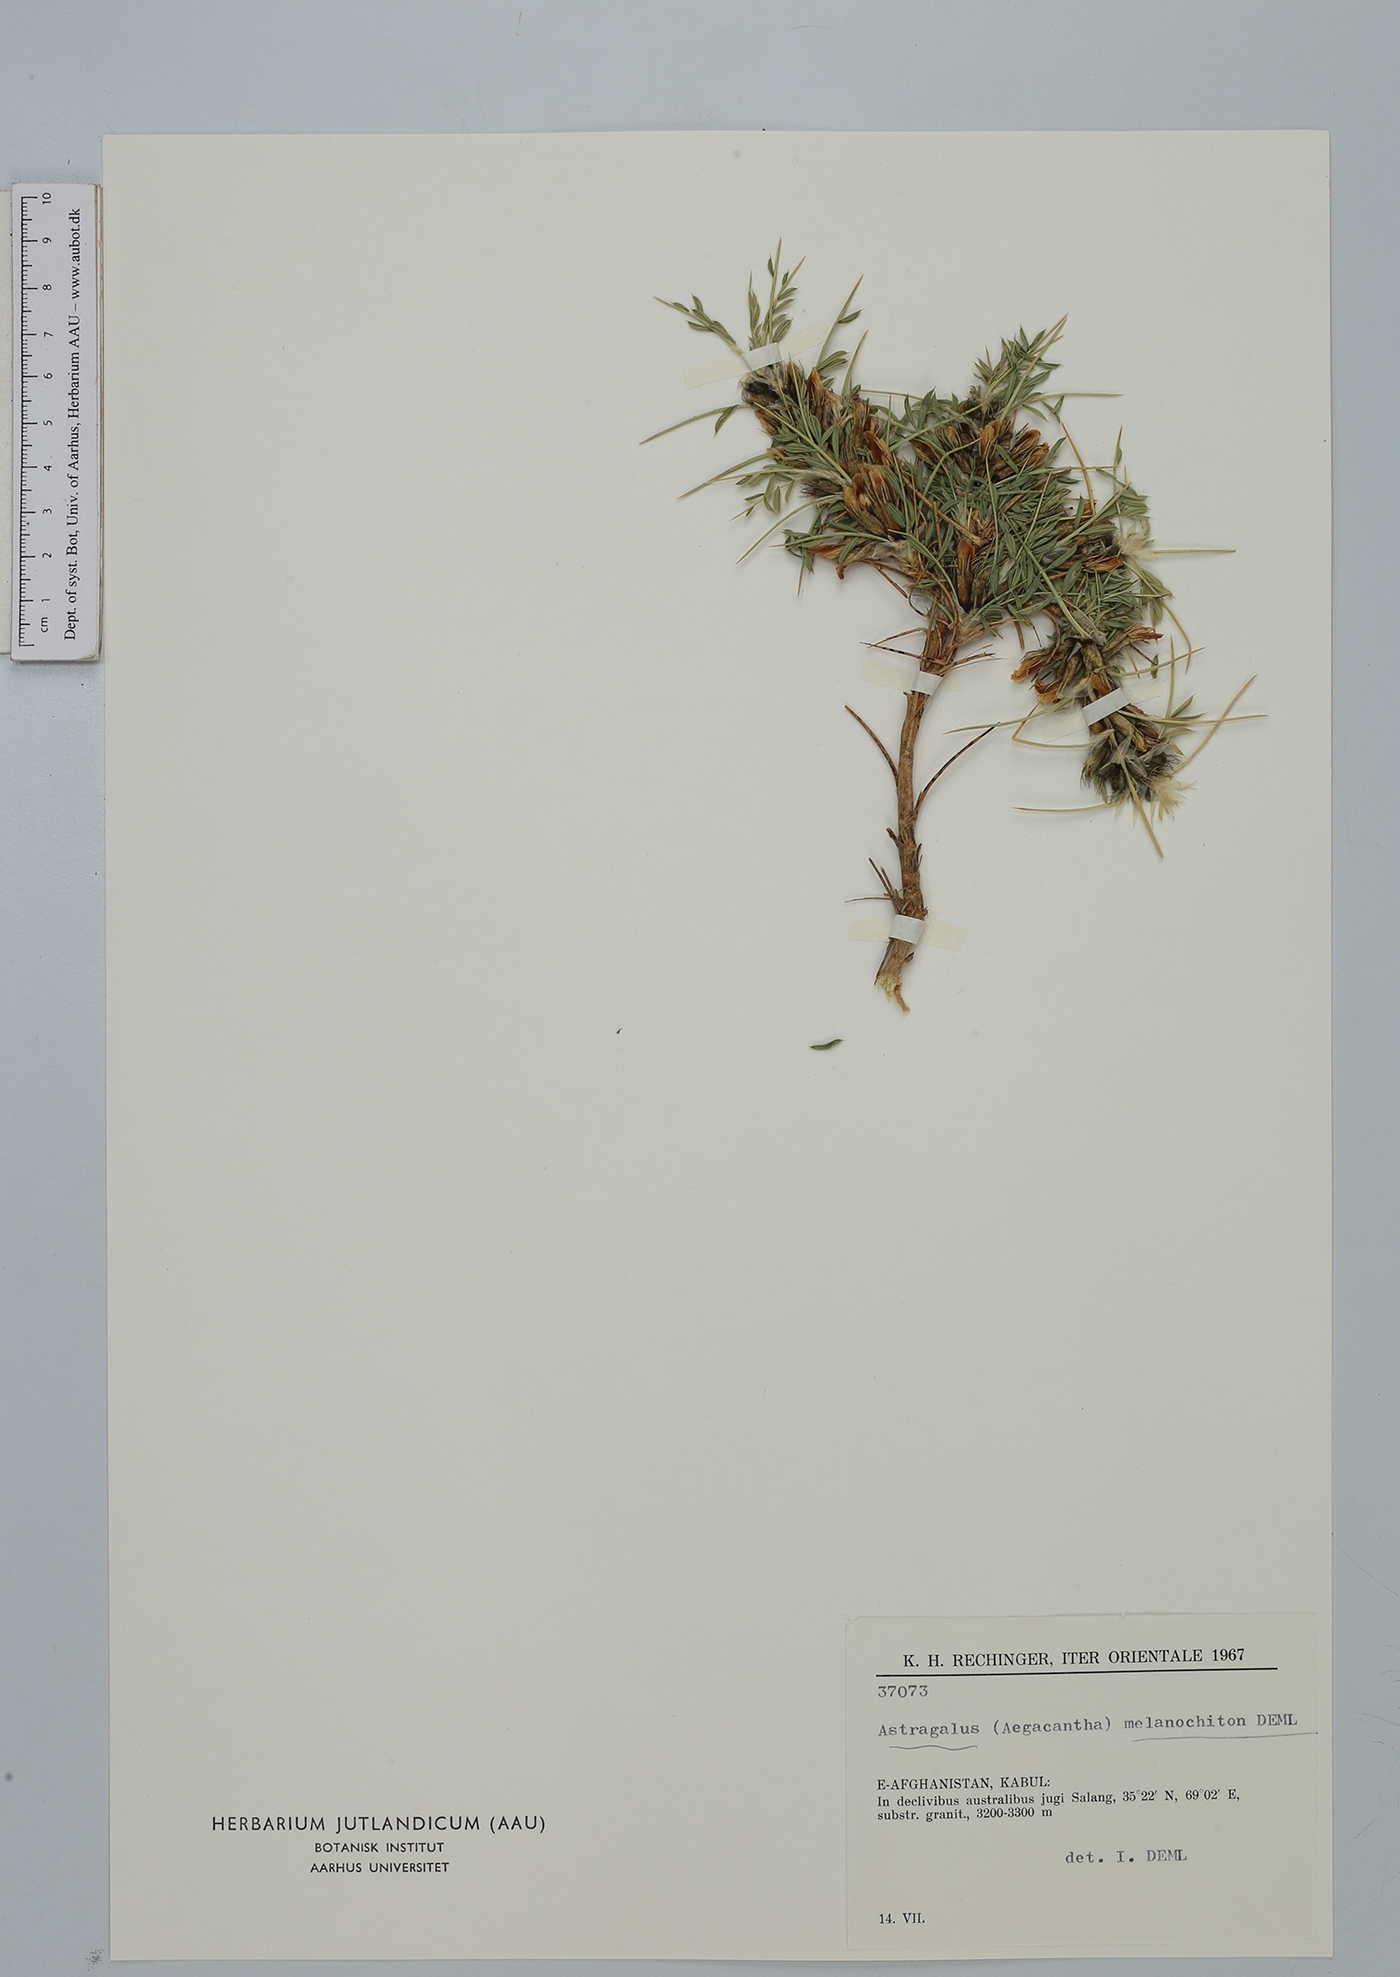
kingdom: Plantae
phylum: Tracheophyta
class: Magnoliopsida
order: Fabales
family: Fabaceae
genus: Astragalus
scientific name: Astragalus melanochiton
